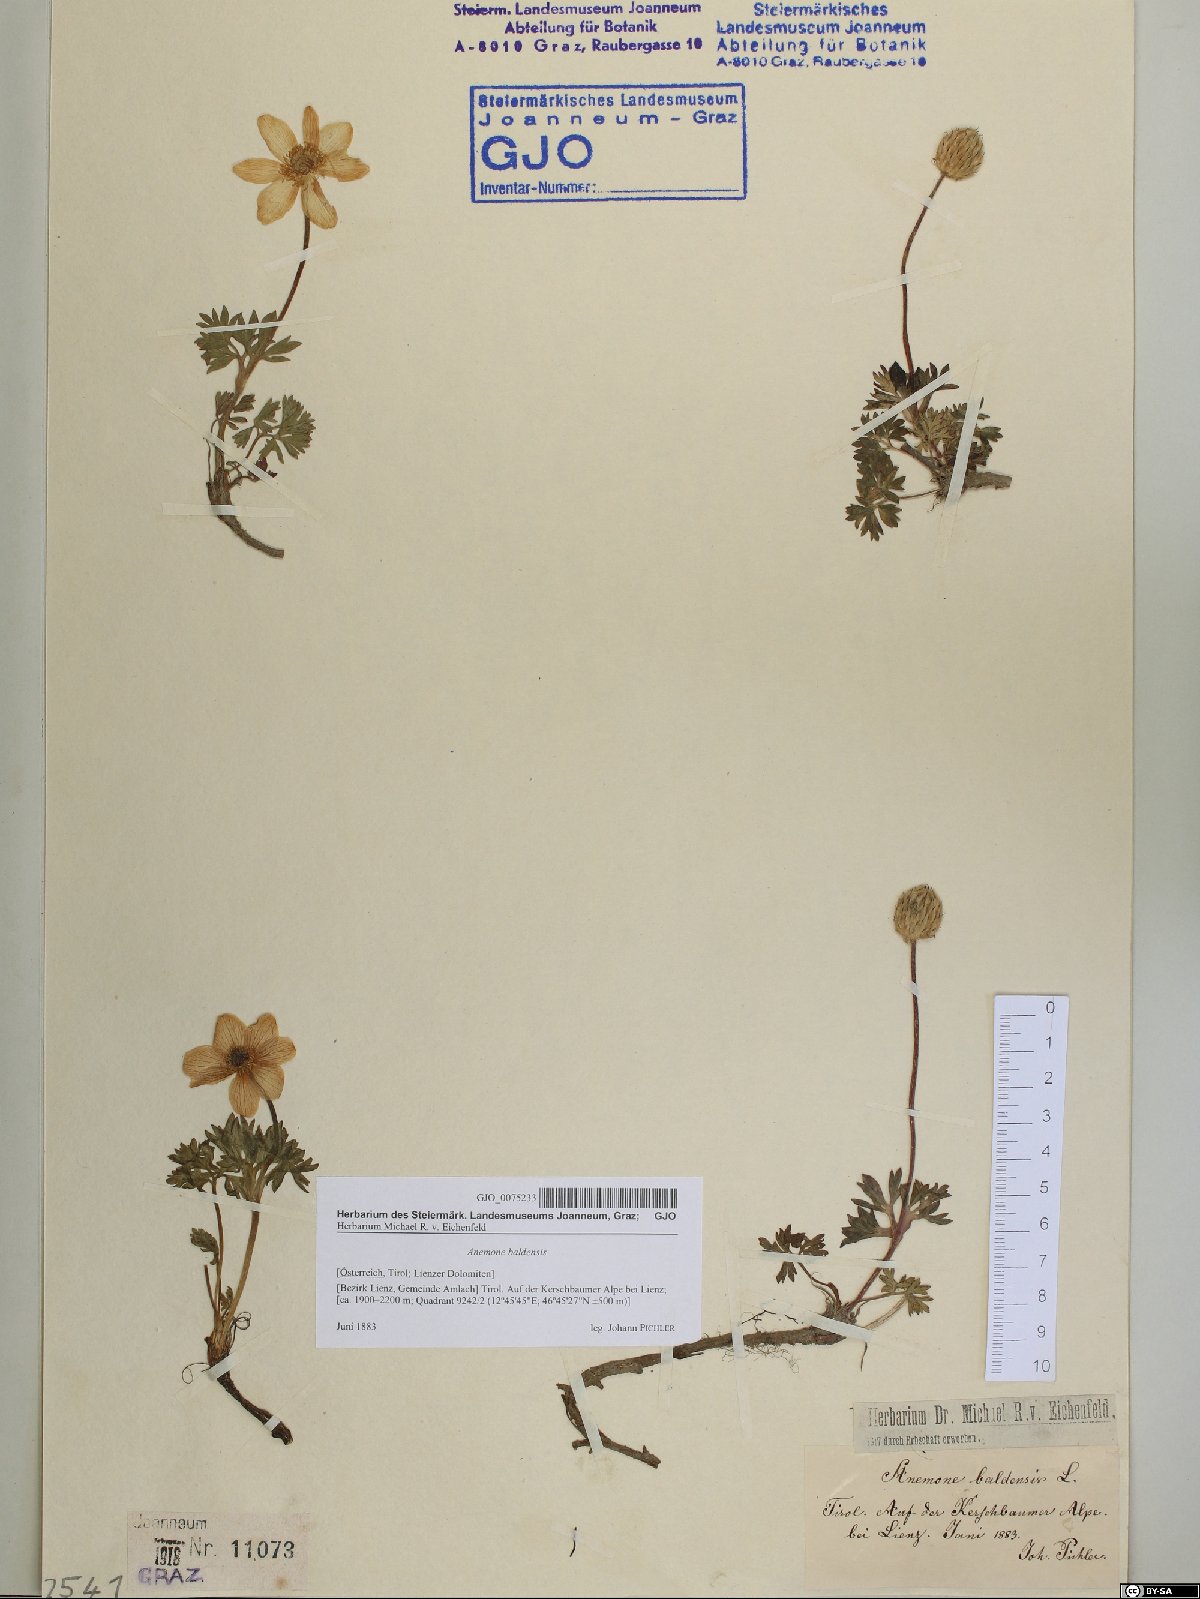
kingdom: Plantae
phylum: Tracheophyta
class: Magnoliopsida
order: Ranunculales
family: Ranunculaceae
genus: Anemone
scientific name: Anemone baldensis
